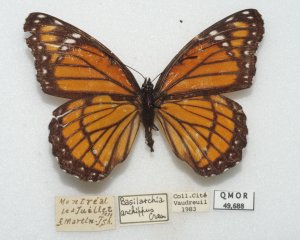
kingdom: Animalia
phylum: Arthropoda
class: Insecta
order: Lepidoptera
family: Nymphalidae
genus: Limenitis
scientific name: Limenitis archippus
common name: Viceroy
